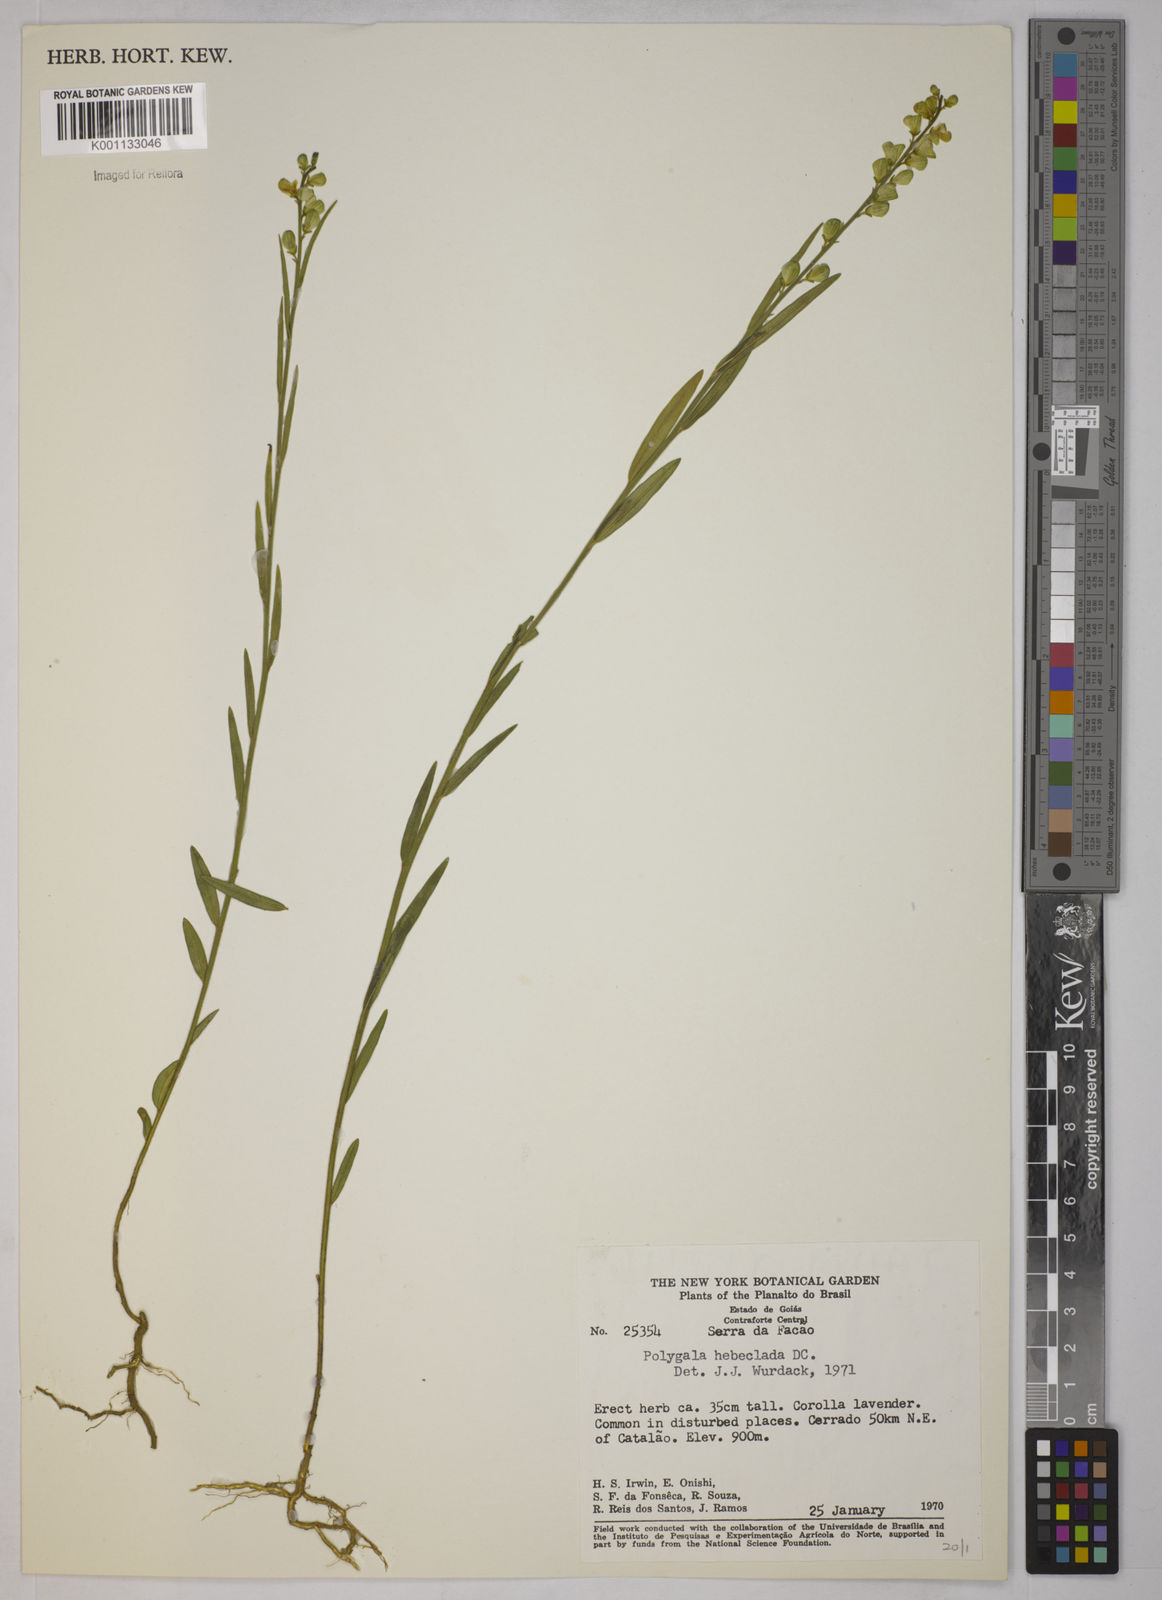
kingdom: Plantae
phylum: Tracheophyta
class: Magnoliopsida
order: Fabales
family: Polygalaceae
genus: Asemeia
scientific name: Asemeia hebeclada
